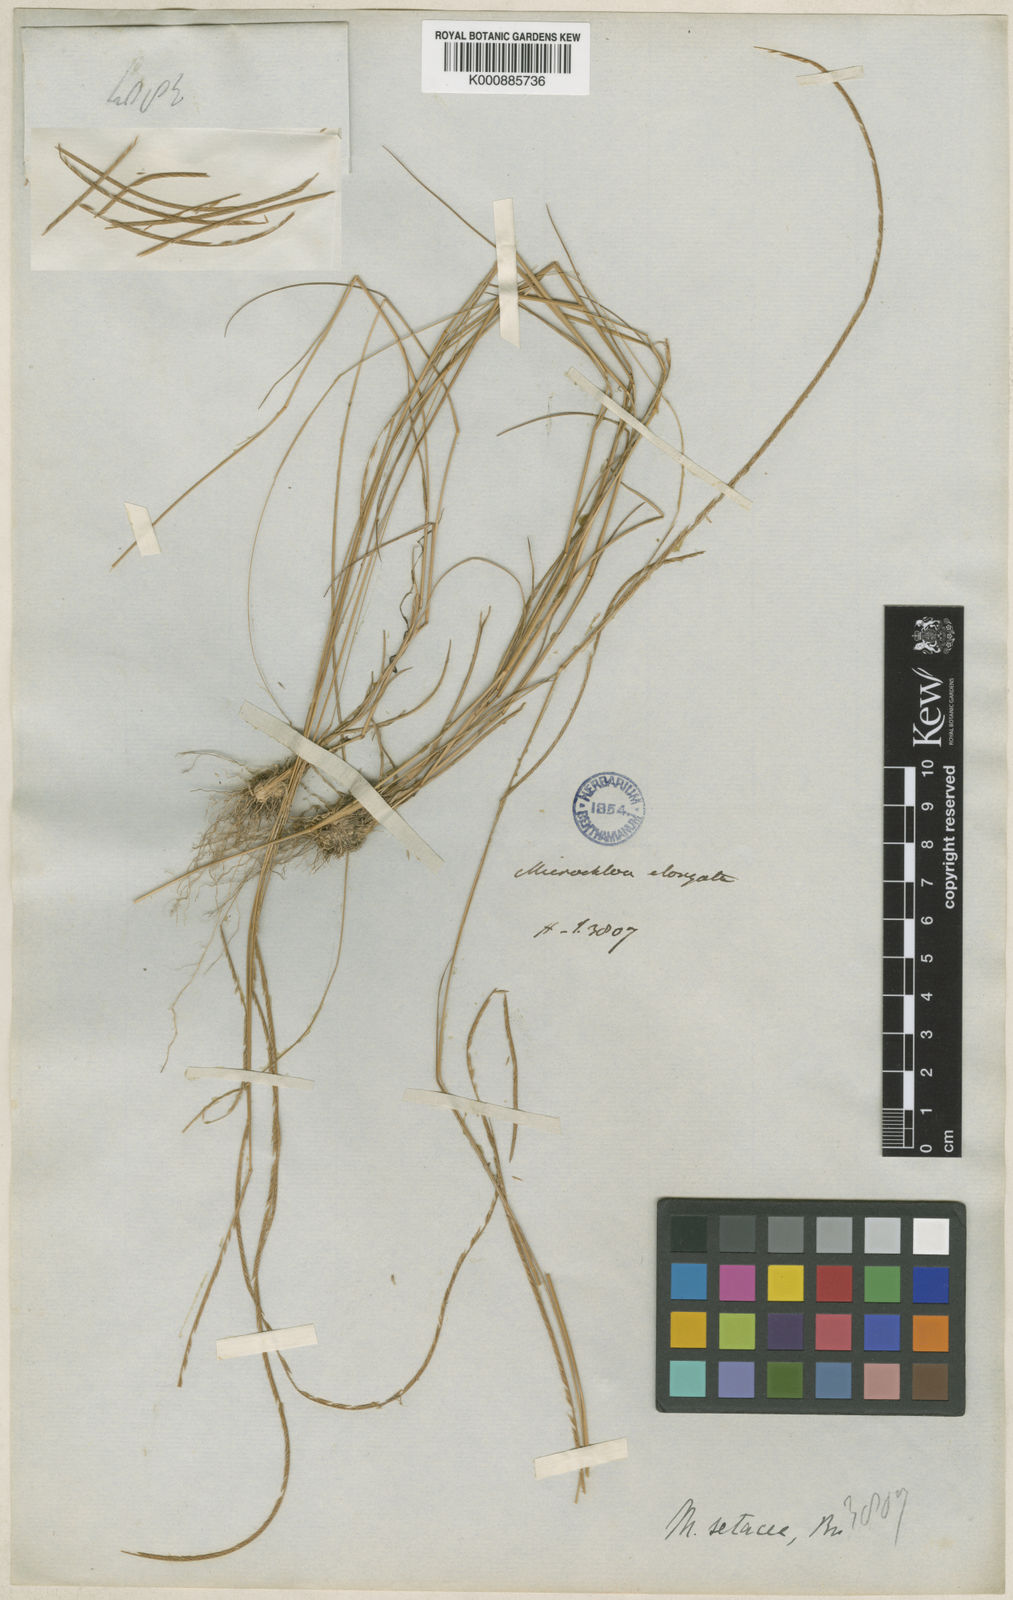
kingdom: Plantae
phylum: Tracheophyta
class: Liliopsida
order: Poales
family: Poaceae
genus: Microchloa
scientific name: Microchloa kunthii
